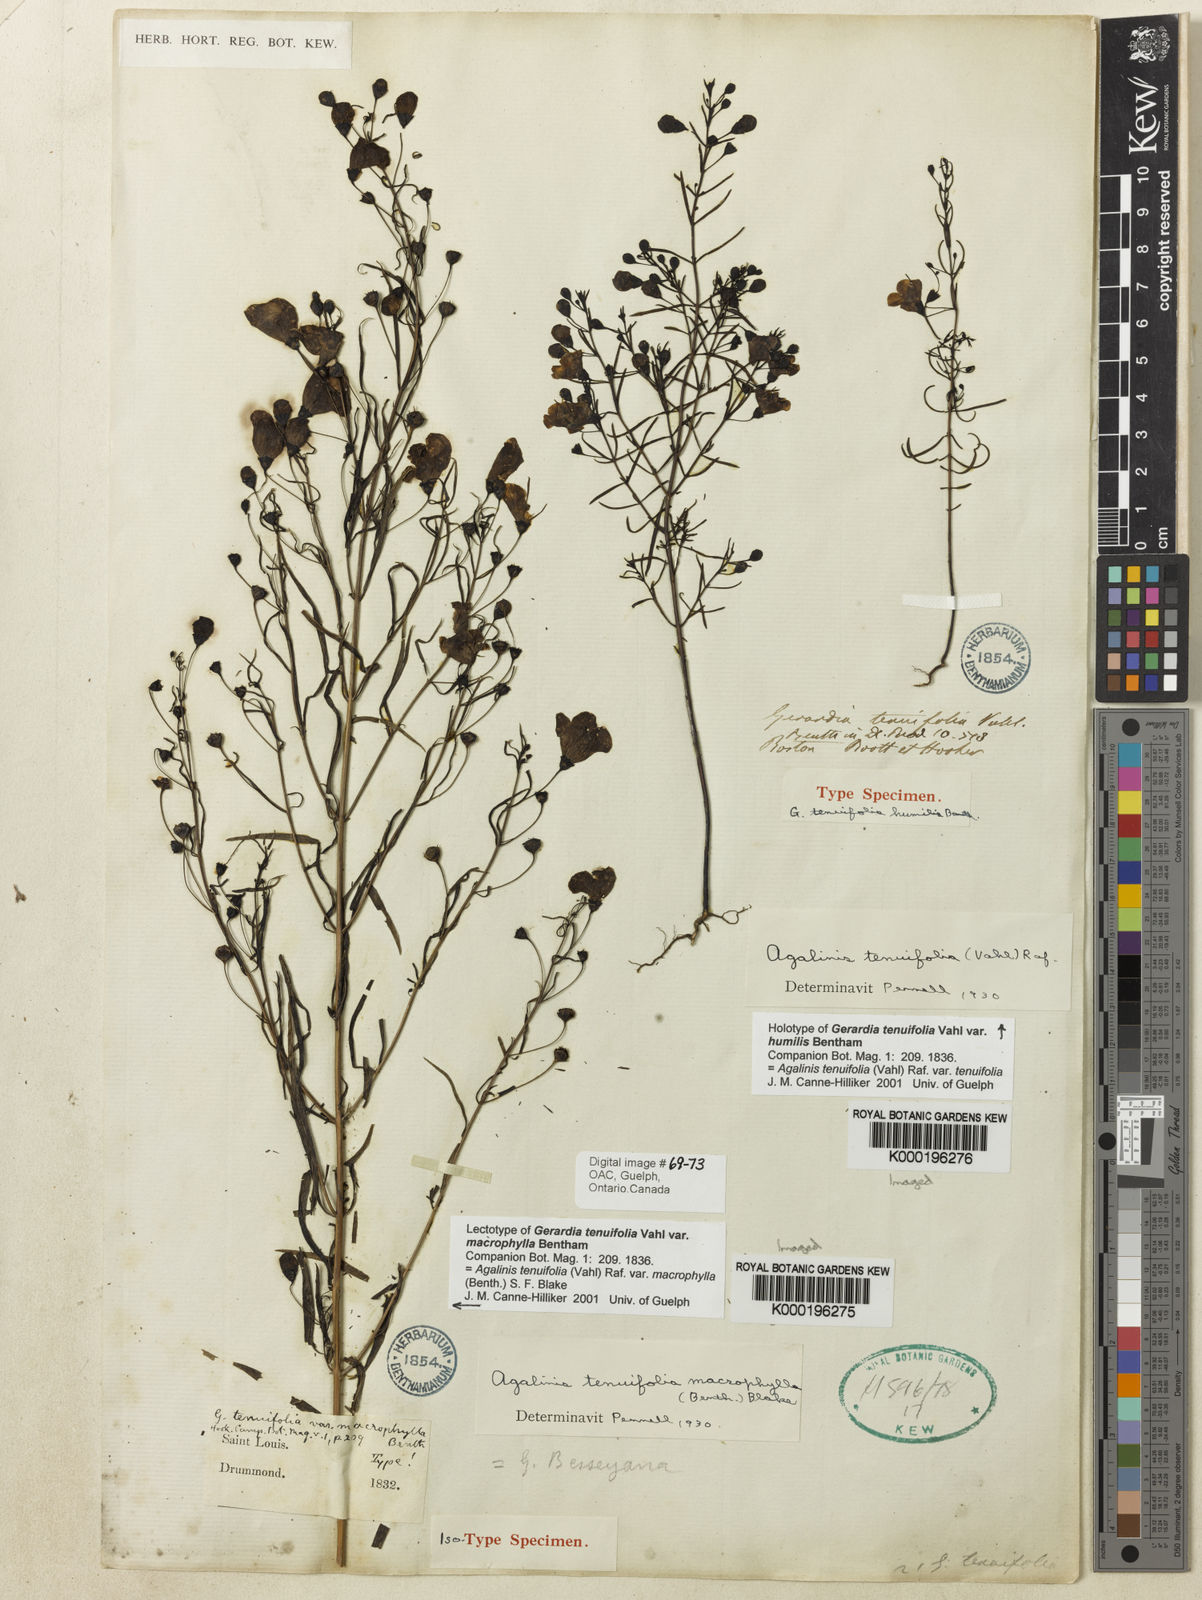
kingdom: Plantae
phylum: Tracheophyta
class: Magnoliopsida
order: Lamiales
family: Orobanchaceae
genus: Agalinis
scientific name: Agalinis tenuifolia
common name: Slender agalinis
